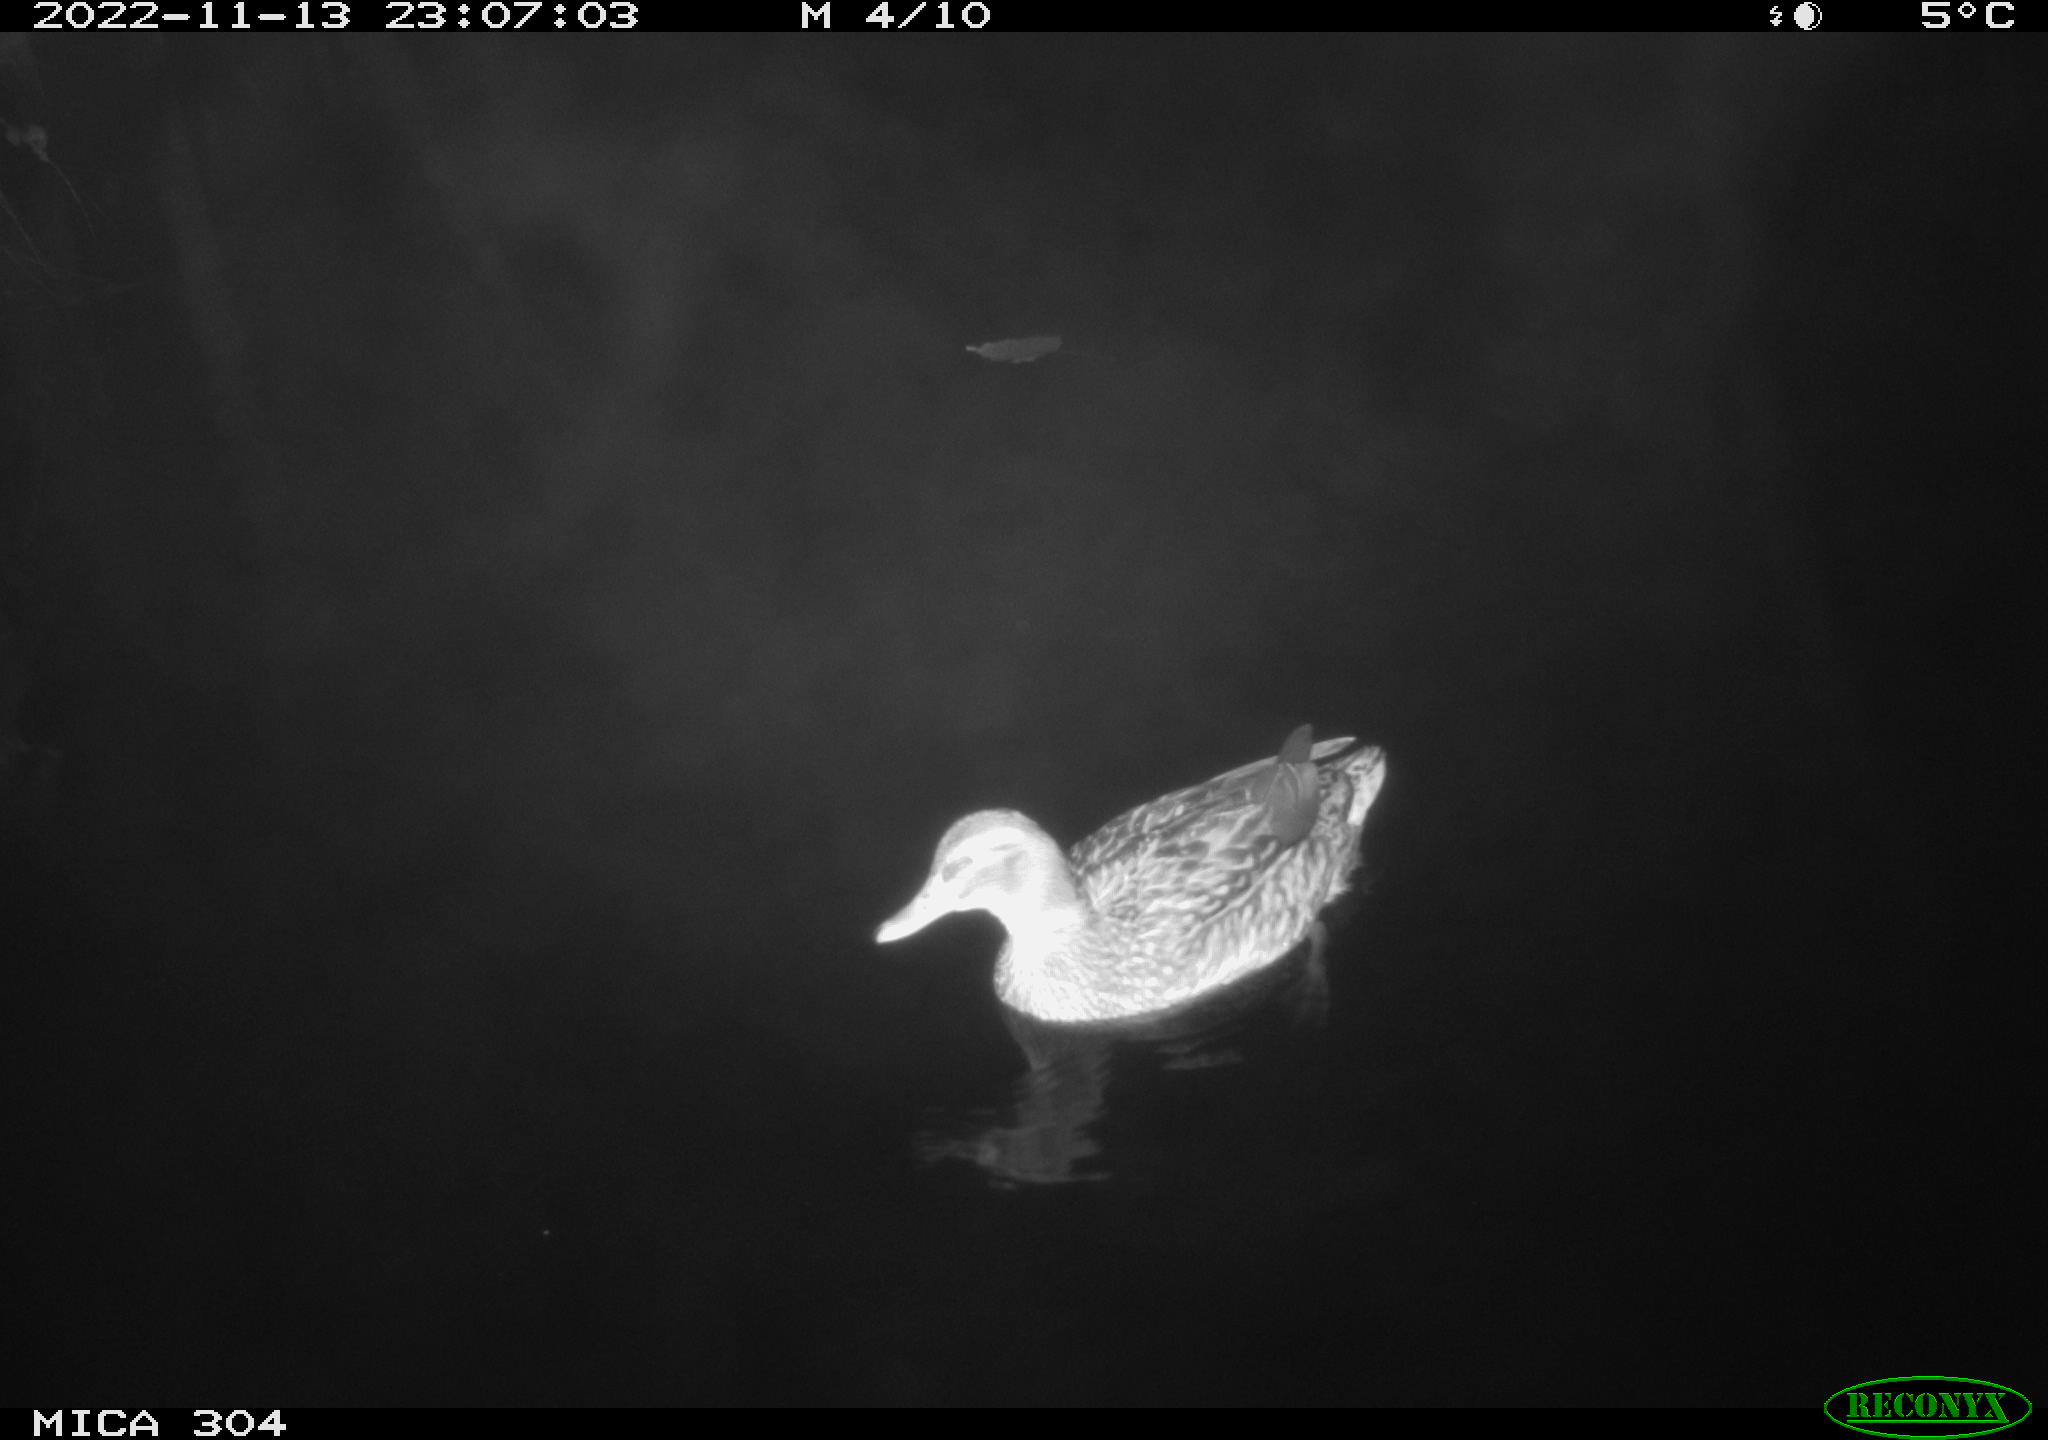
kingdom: Animalia
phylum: Chordata
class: Aves
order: Anseriformes
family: Anatidae
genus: Anas
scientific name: Anas
